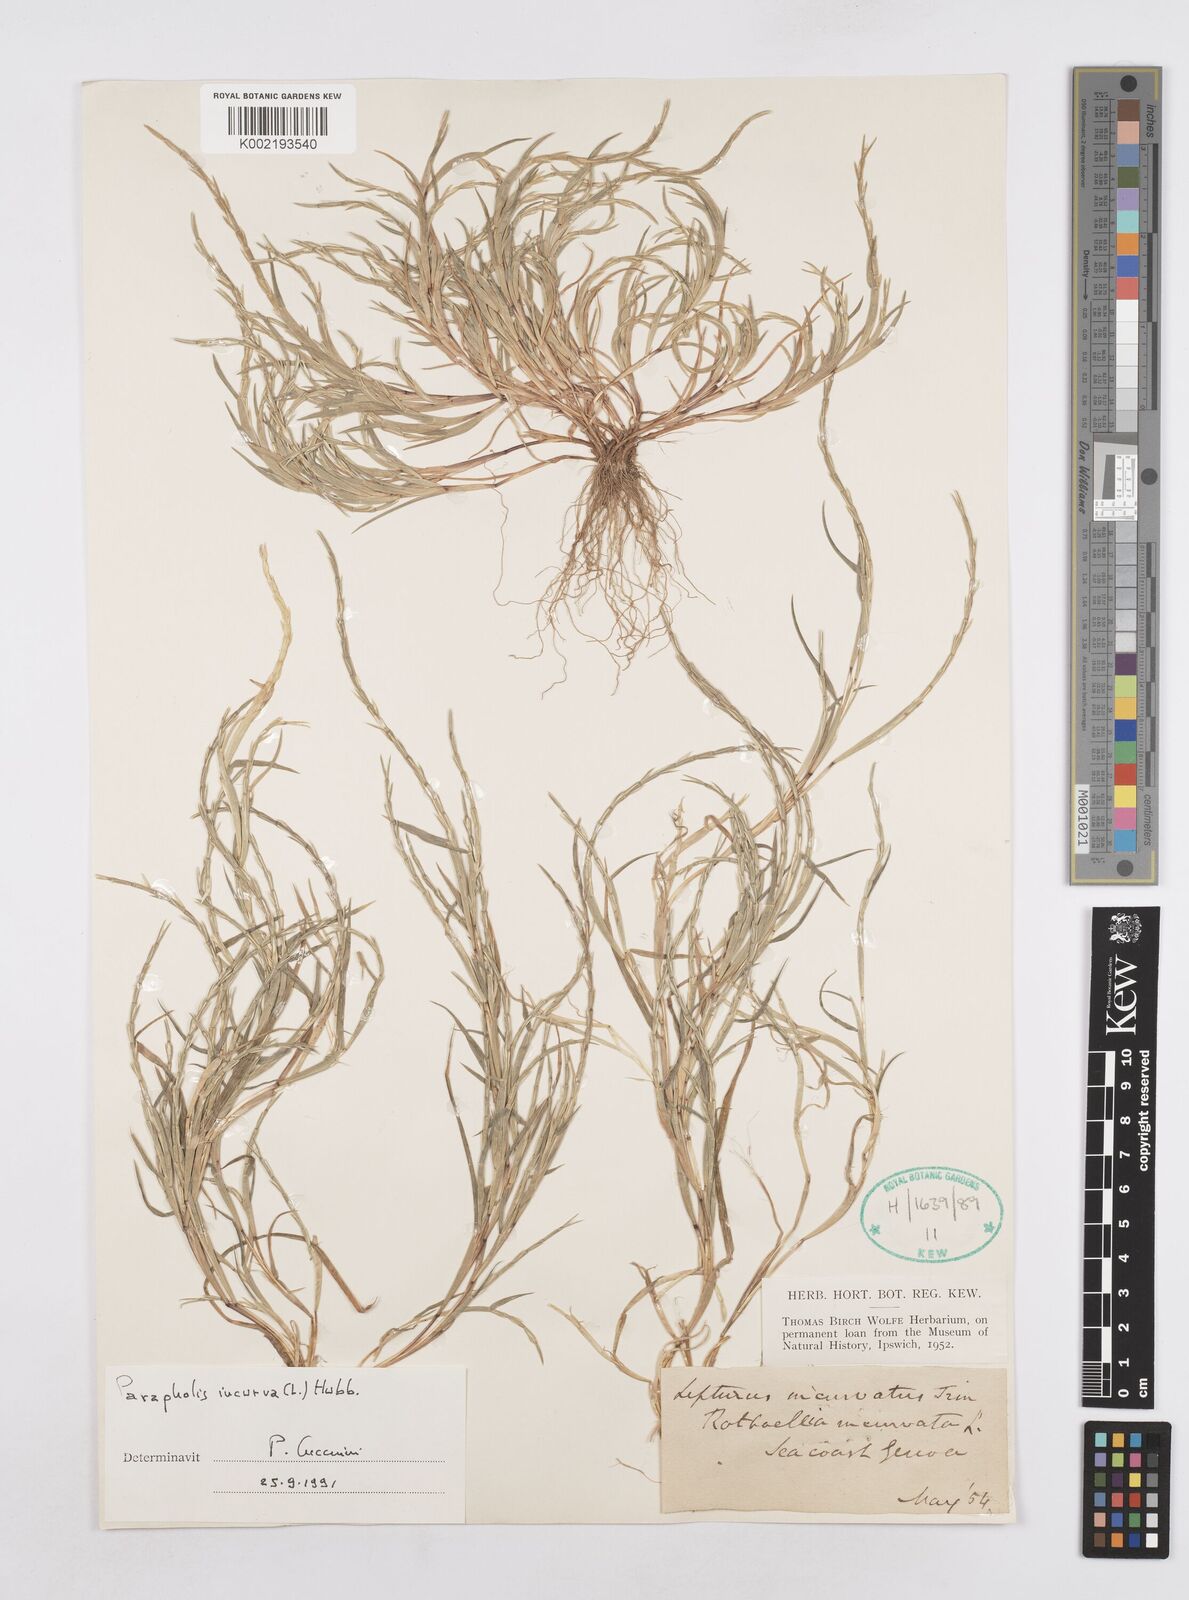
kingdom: Plantae
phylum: Tracheophyta
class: Liliopsida
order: Poales
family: Poaceae
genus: Parapholis
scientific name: Parapholis incurva
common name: Curved sicklegrass
